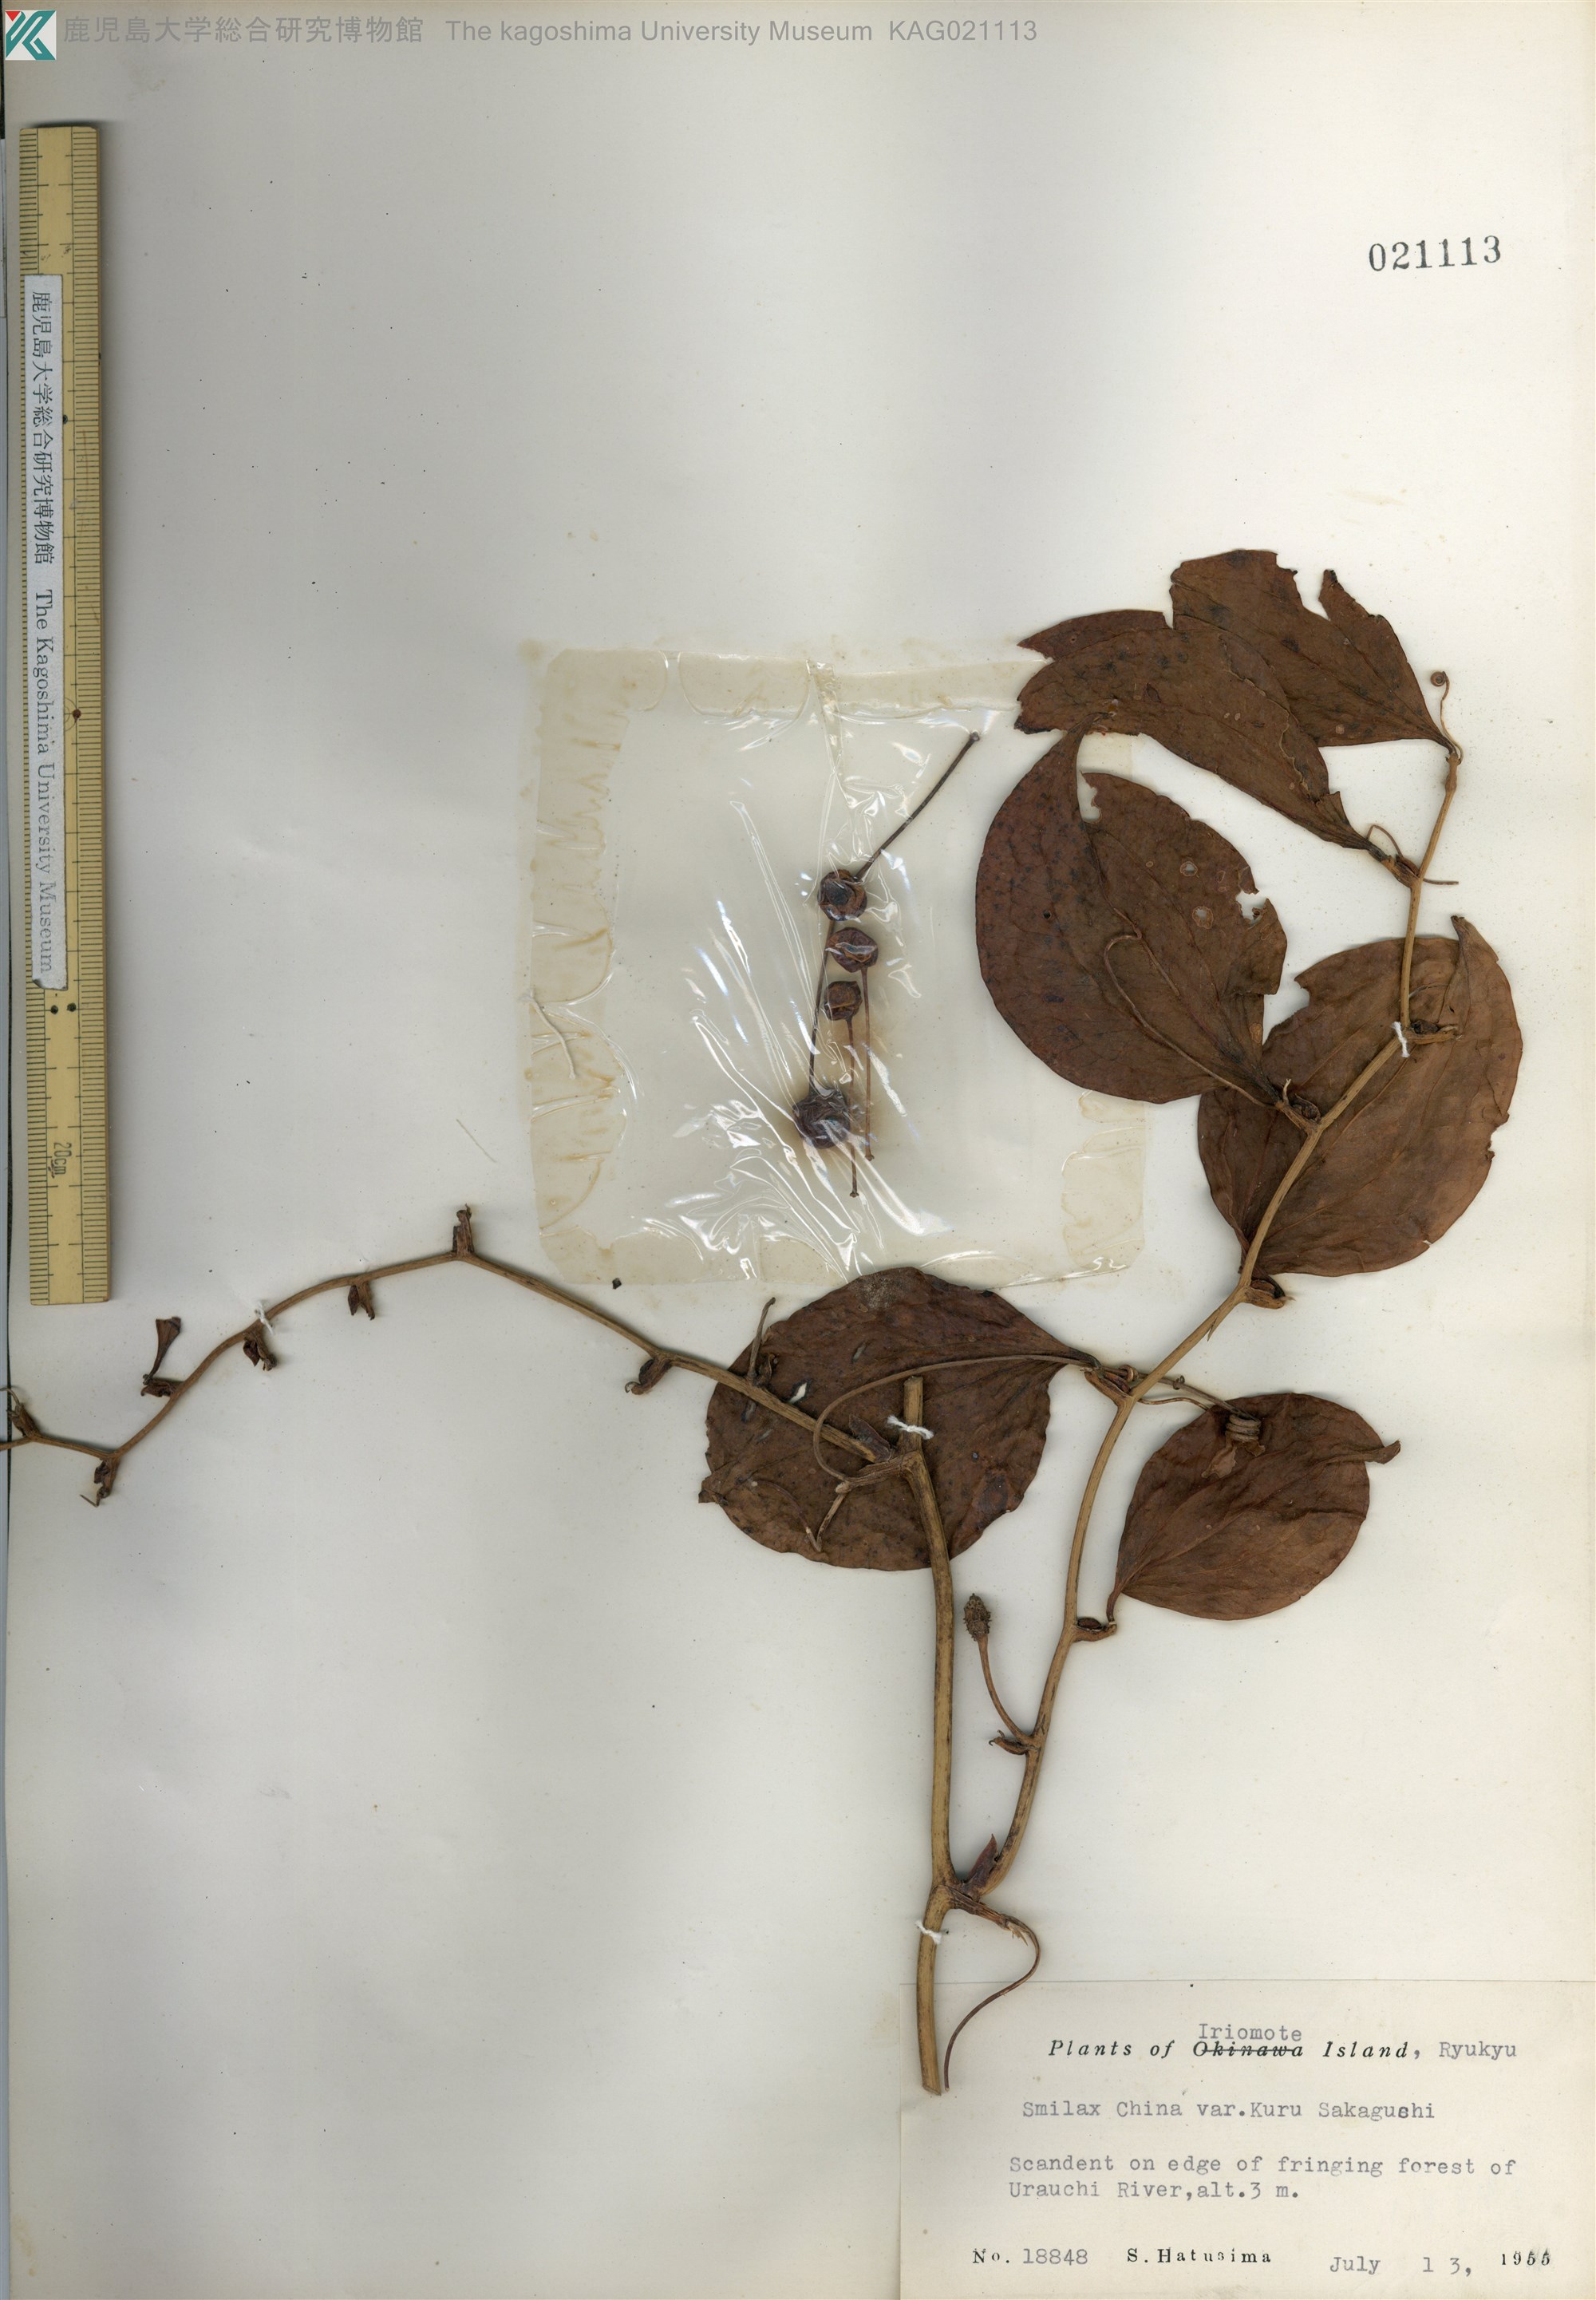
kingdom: Plantae
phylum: Tracheophyta
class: Liliopsida
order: Liliales
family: Smilacaceae
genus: Smilax
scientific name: Smilax china
